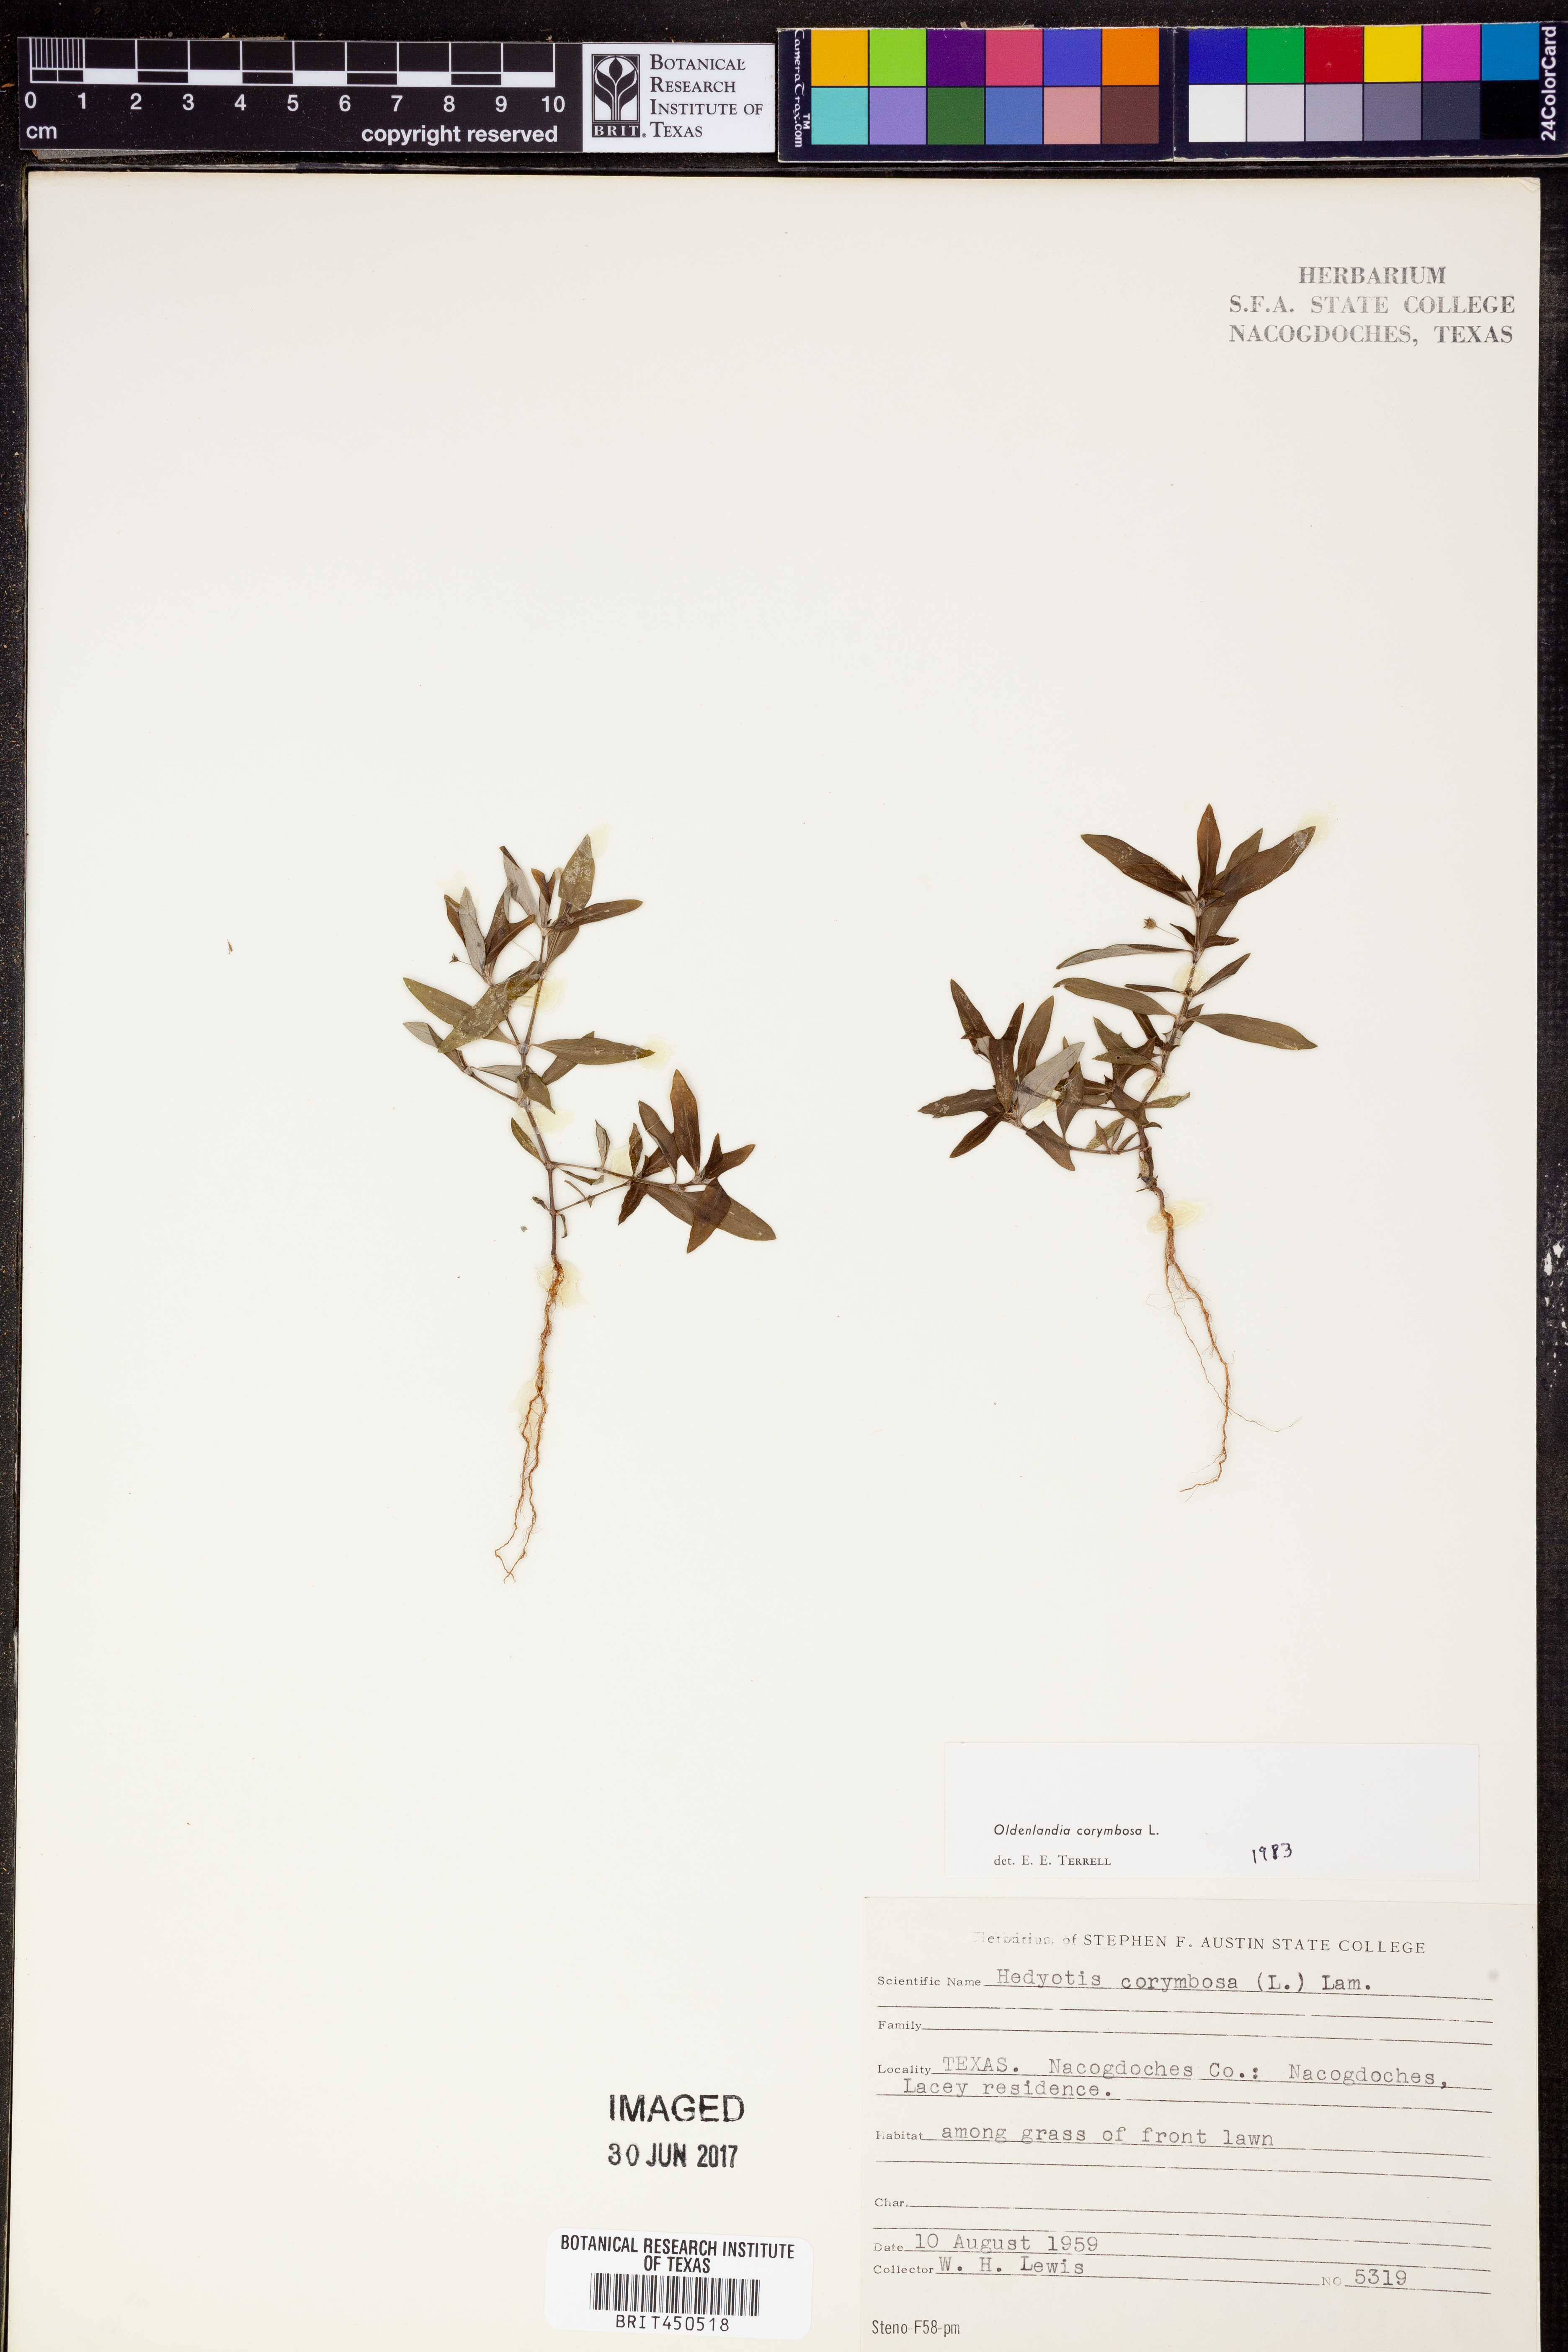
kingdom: Plantae
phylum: Tracheophyta
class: Magnoliopsida
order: Gentianales
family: Rubiaceae
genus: Oldenlandia
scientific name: Oldenlandia corymbosa
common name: Flat-top mille graines
